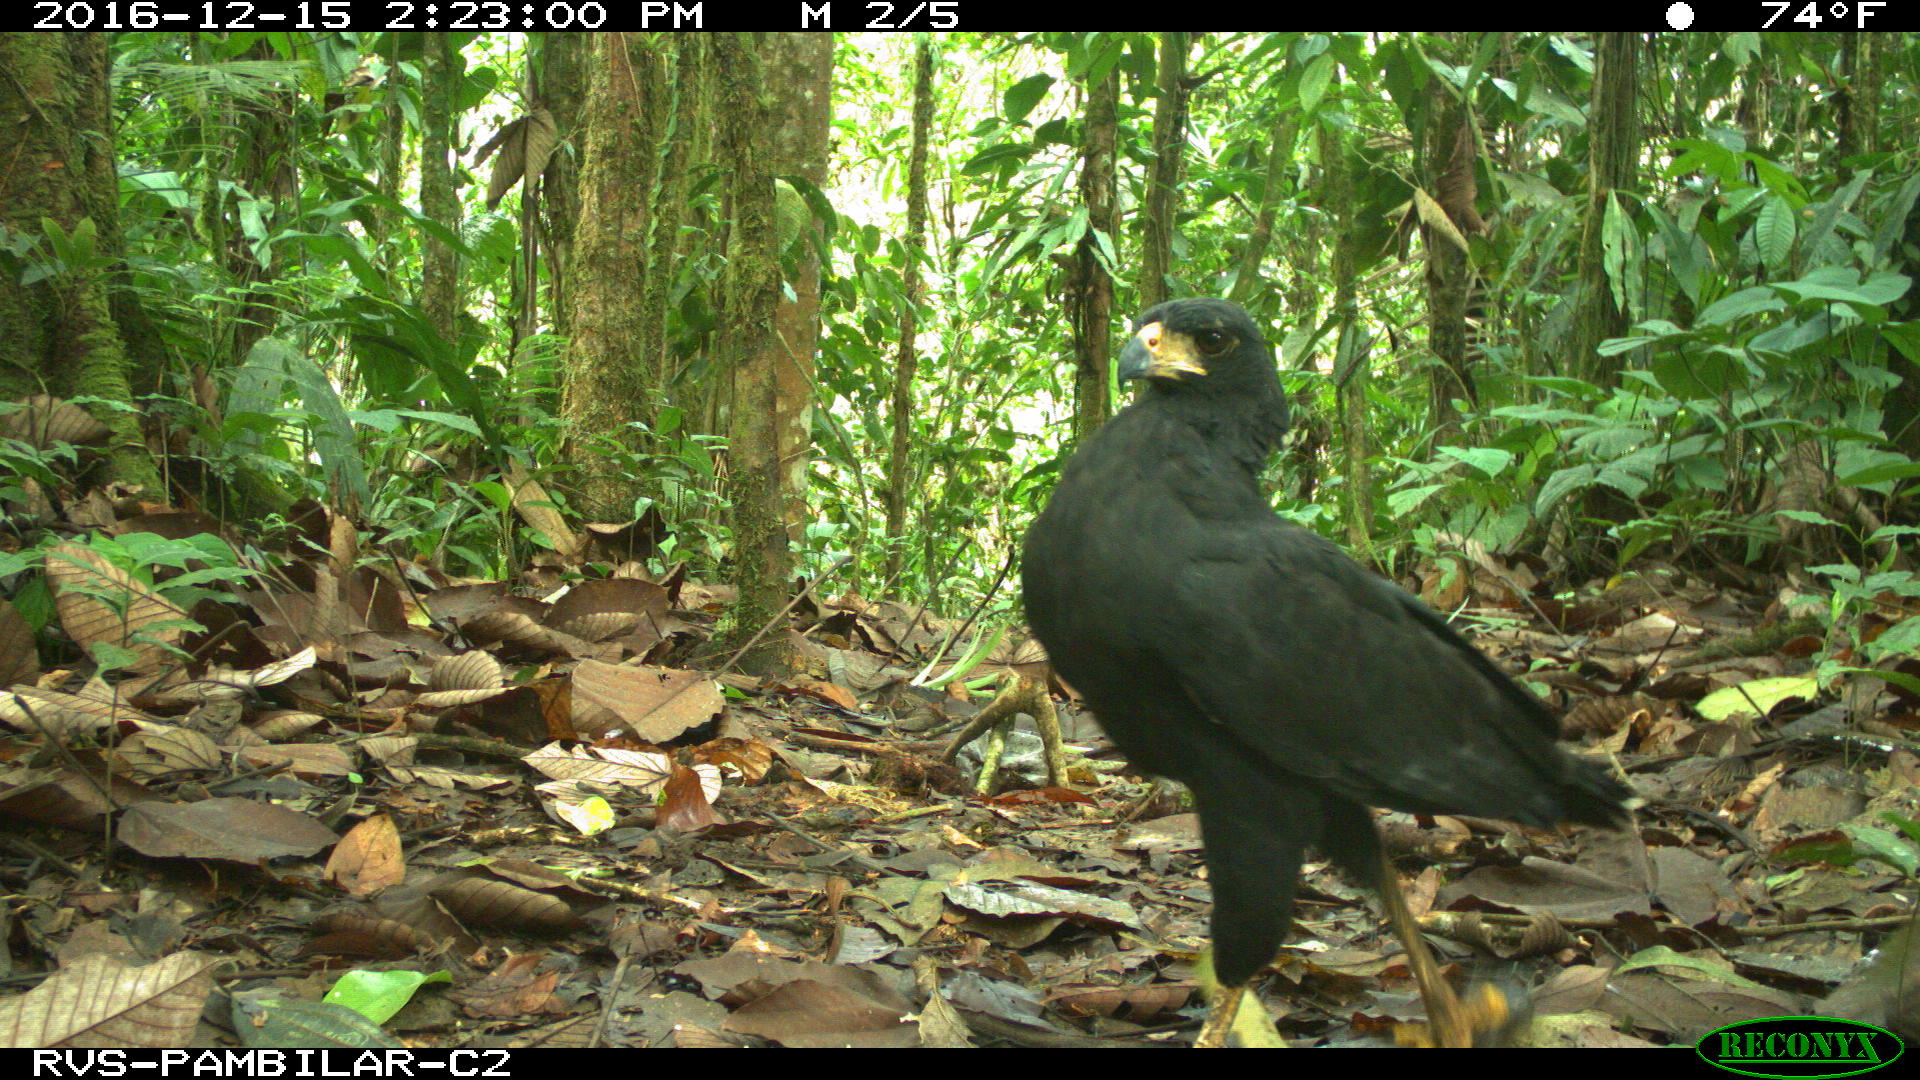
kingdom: Animalia
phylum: Chordata
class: Aves
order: Accipitriformes
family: Accipitridae
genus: Buteogallus
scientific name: Buteogallus urubitinga
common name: Great black hawk
